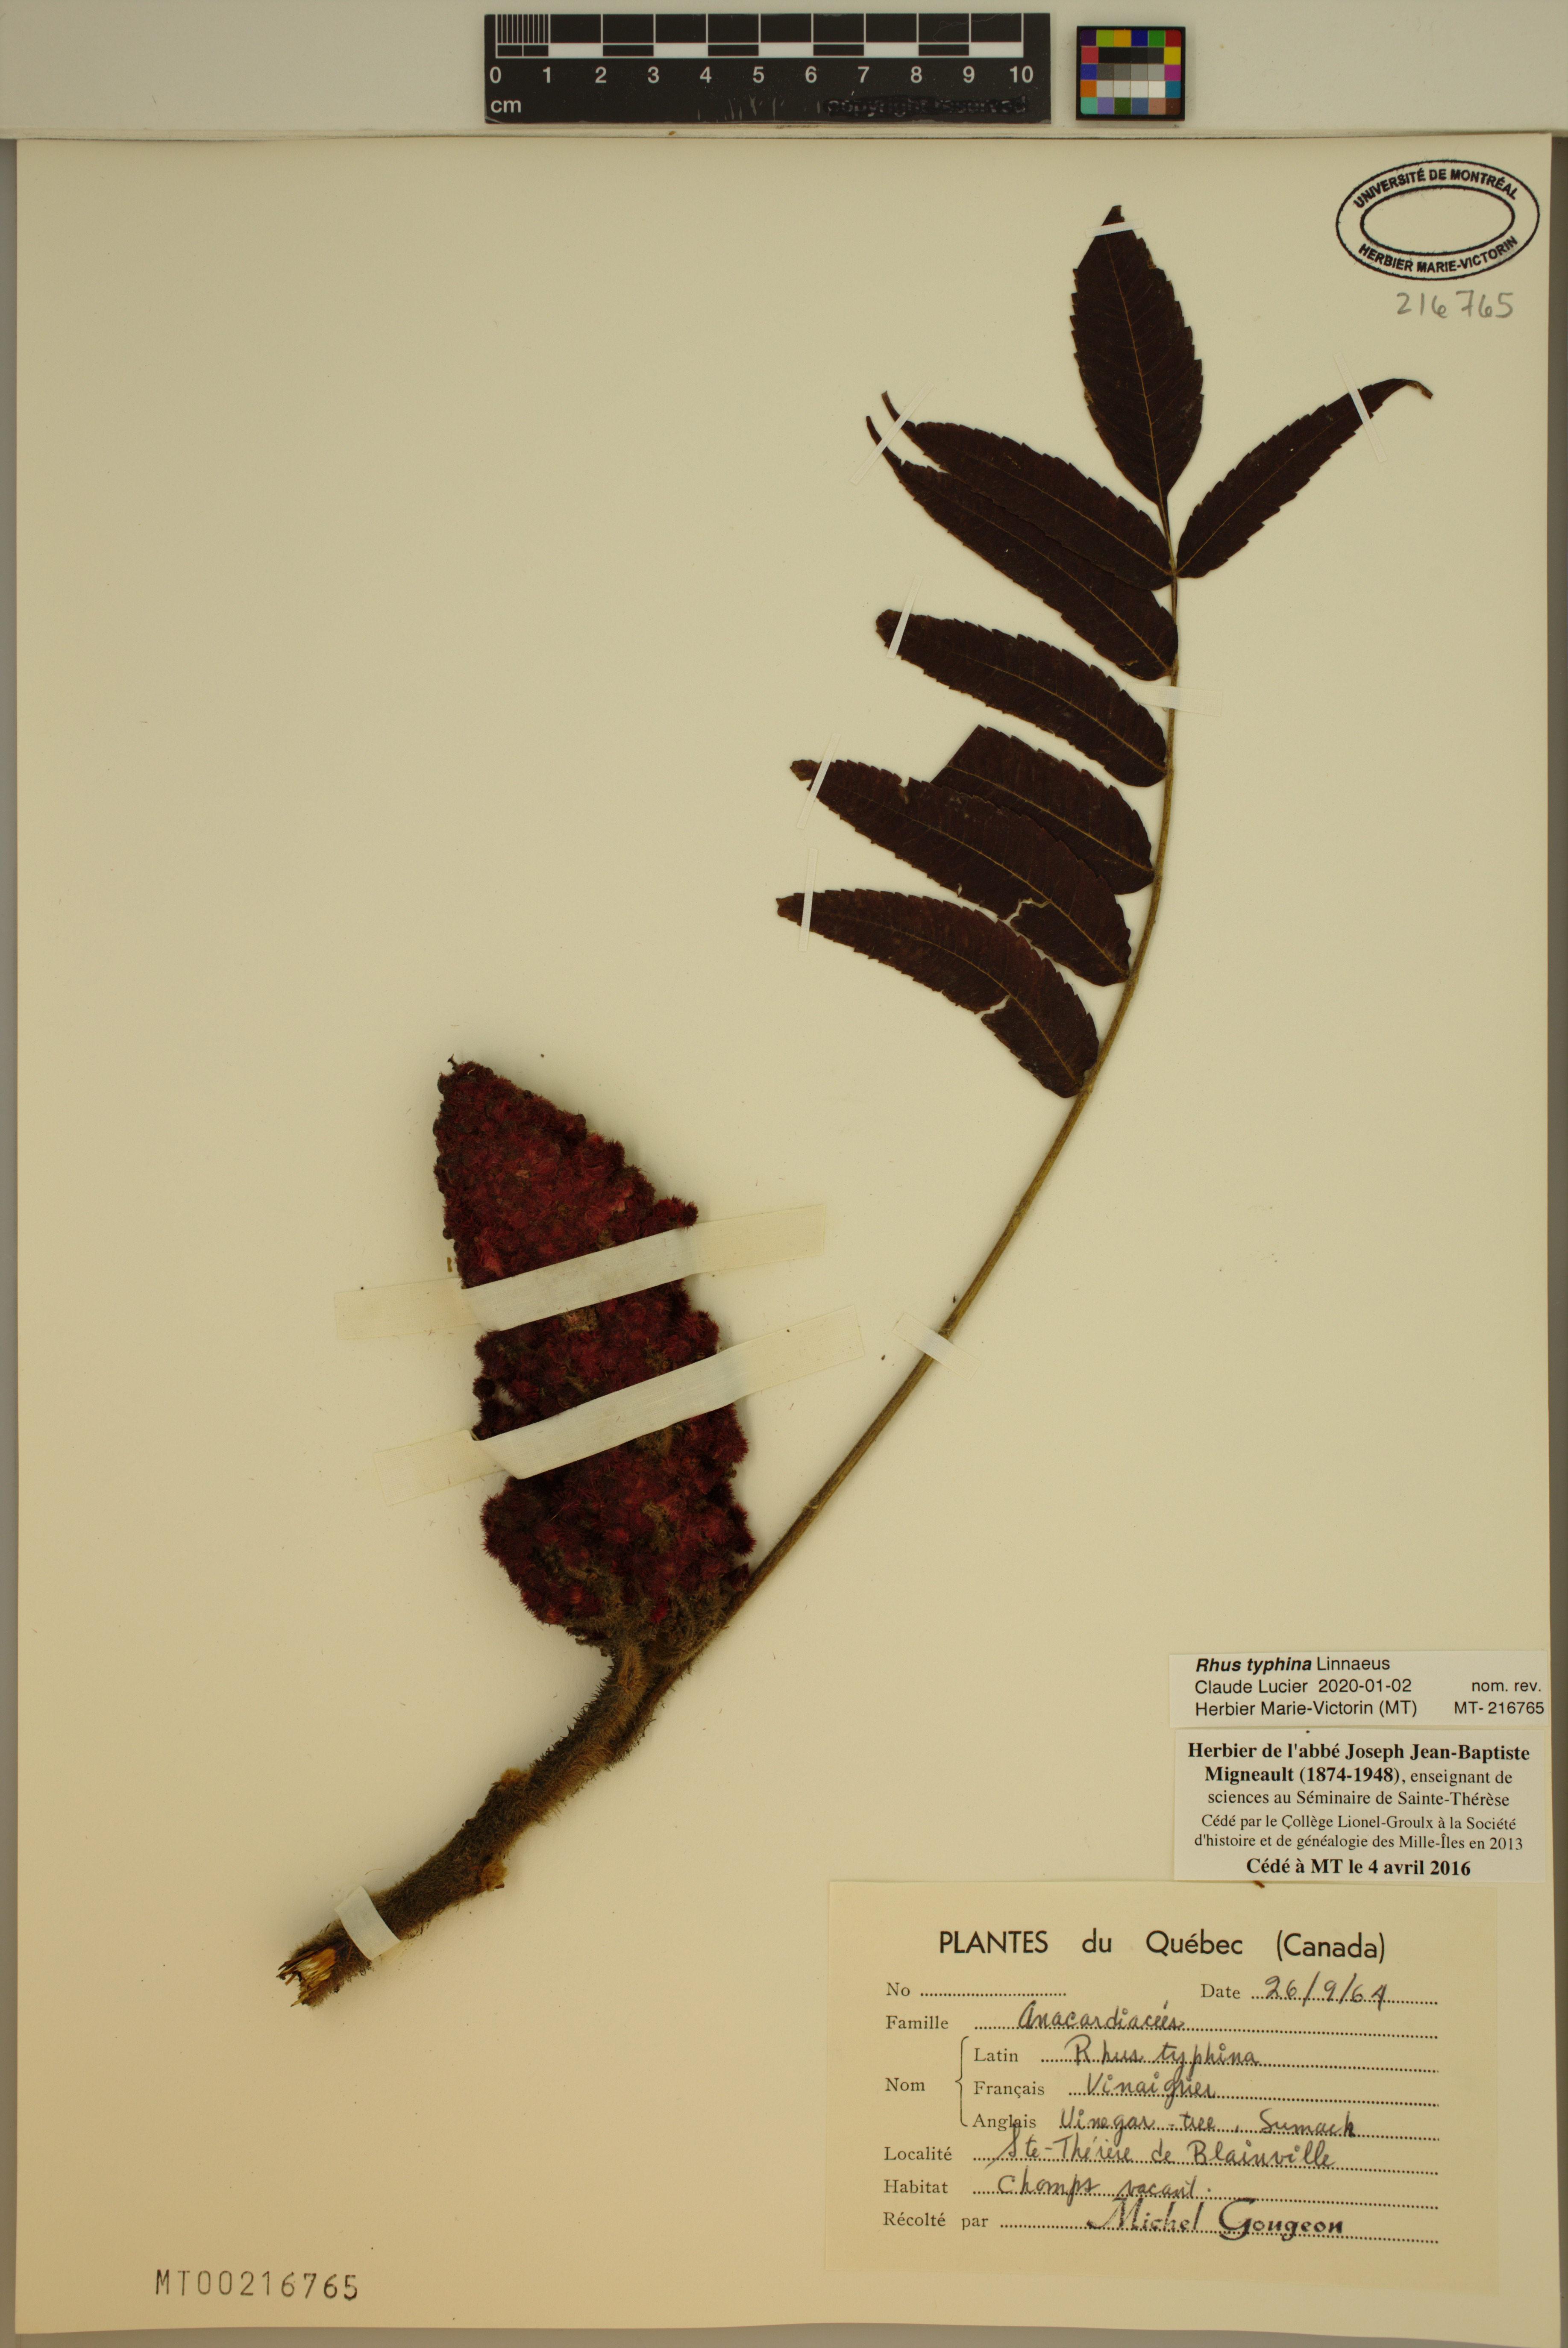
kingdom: Plantae
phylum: Tracheophyta
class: Magnoliopsida
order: Sapindales
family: Anacardiaceae
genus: Rhus
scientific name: Rhus typhina
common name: Staghorn sumac
